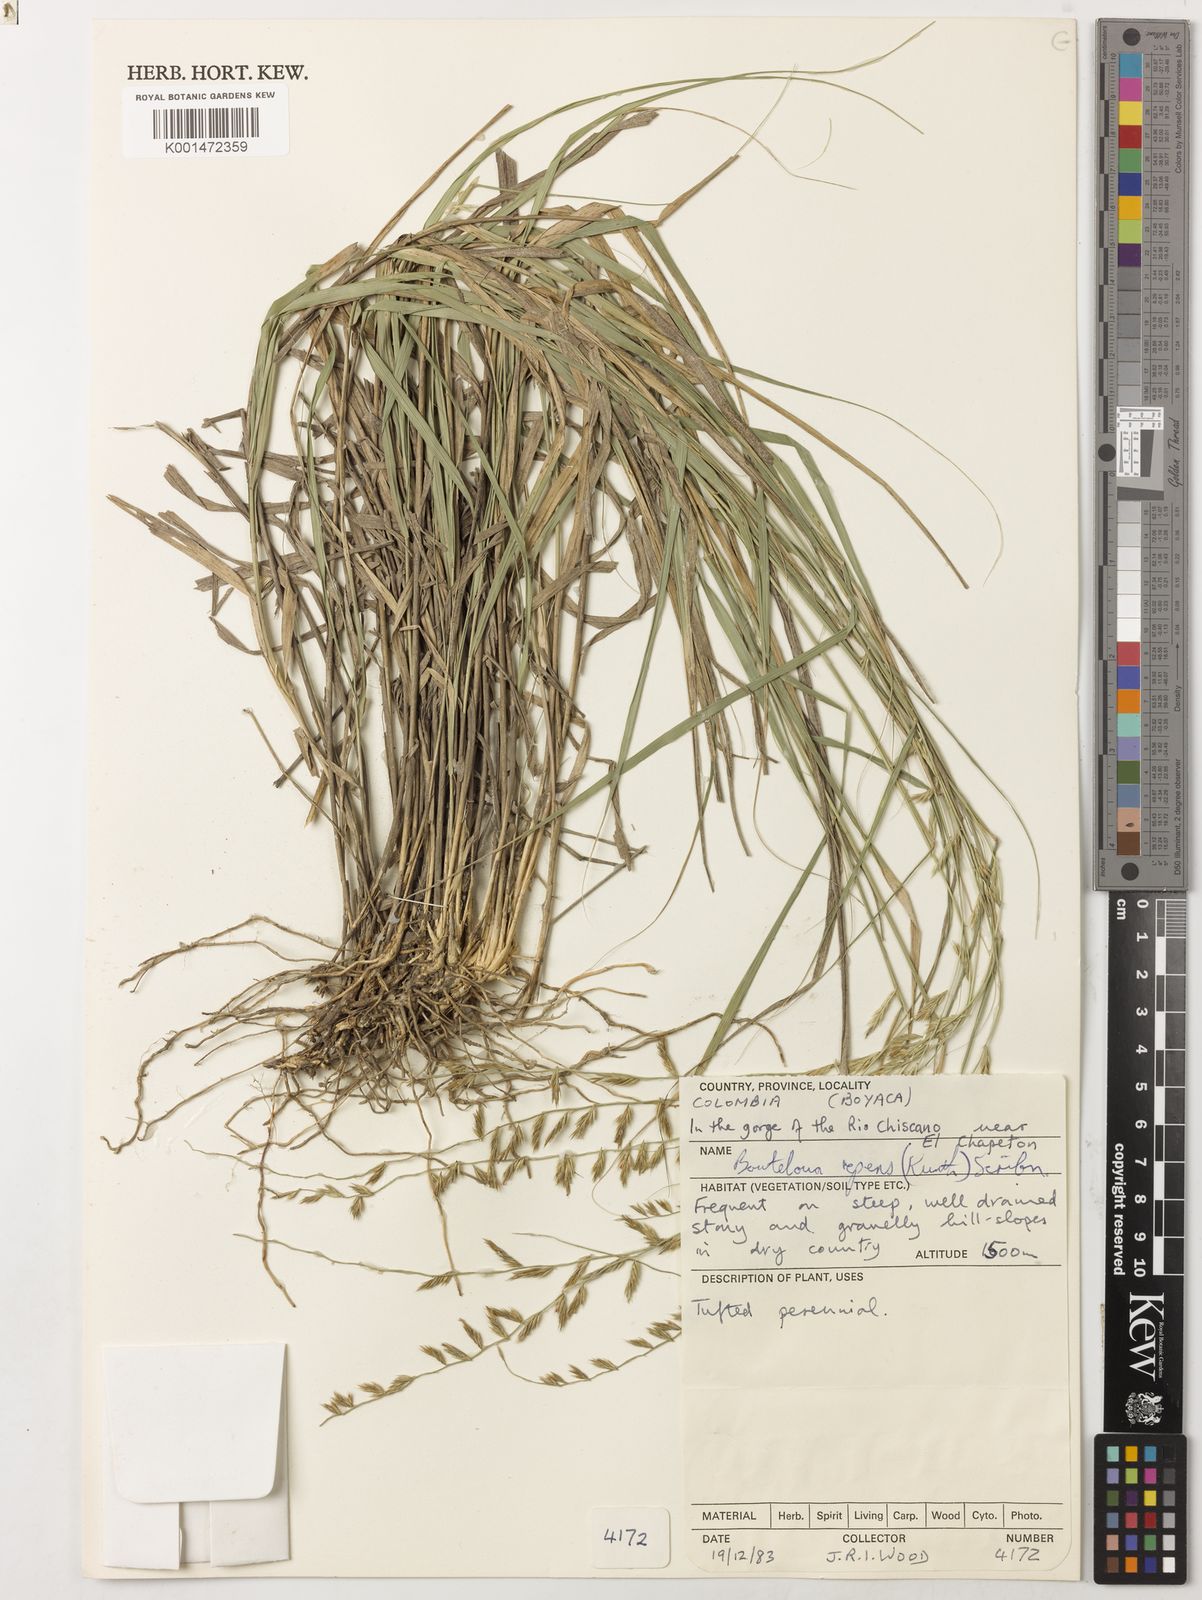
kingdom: Plantae
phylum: Tracheophyta
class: Liliopsida
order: Poales
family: Poaceae
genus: Bouteloua
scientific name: Bouteloua repens
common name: Slender grama
